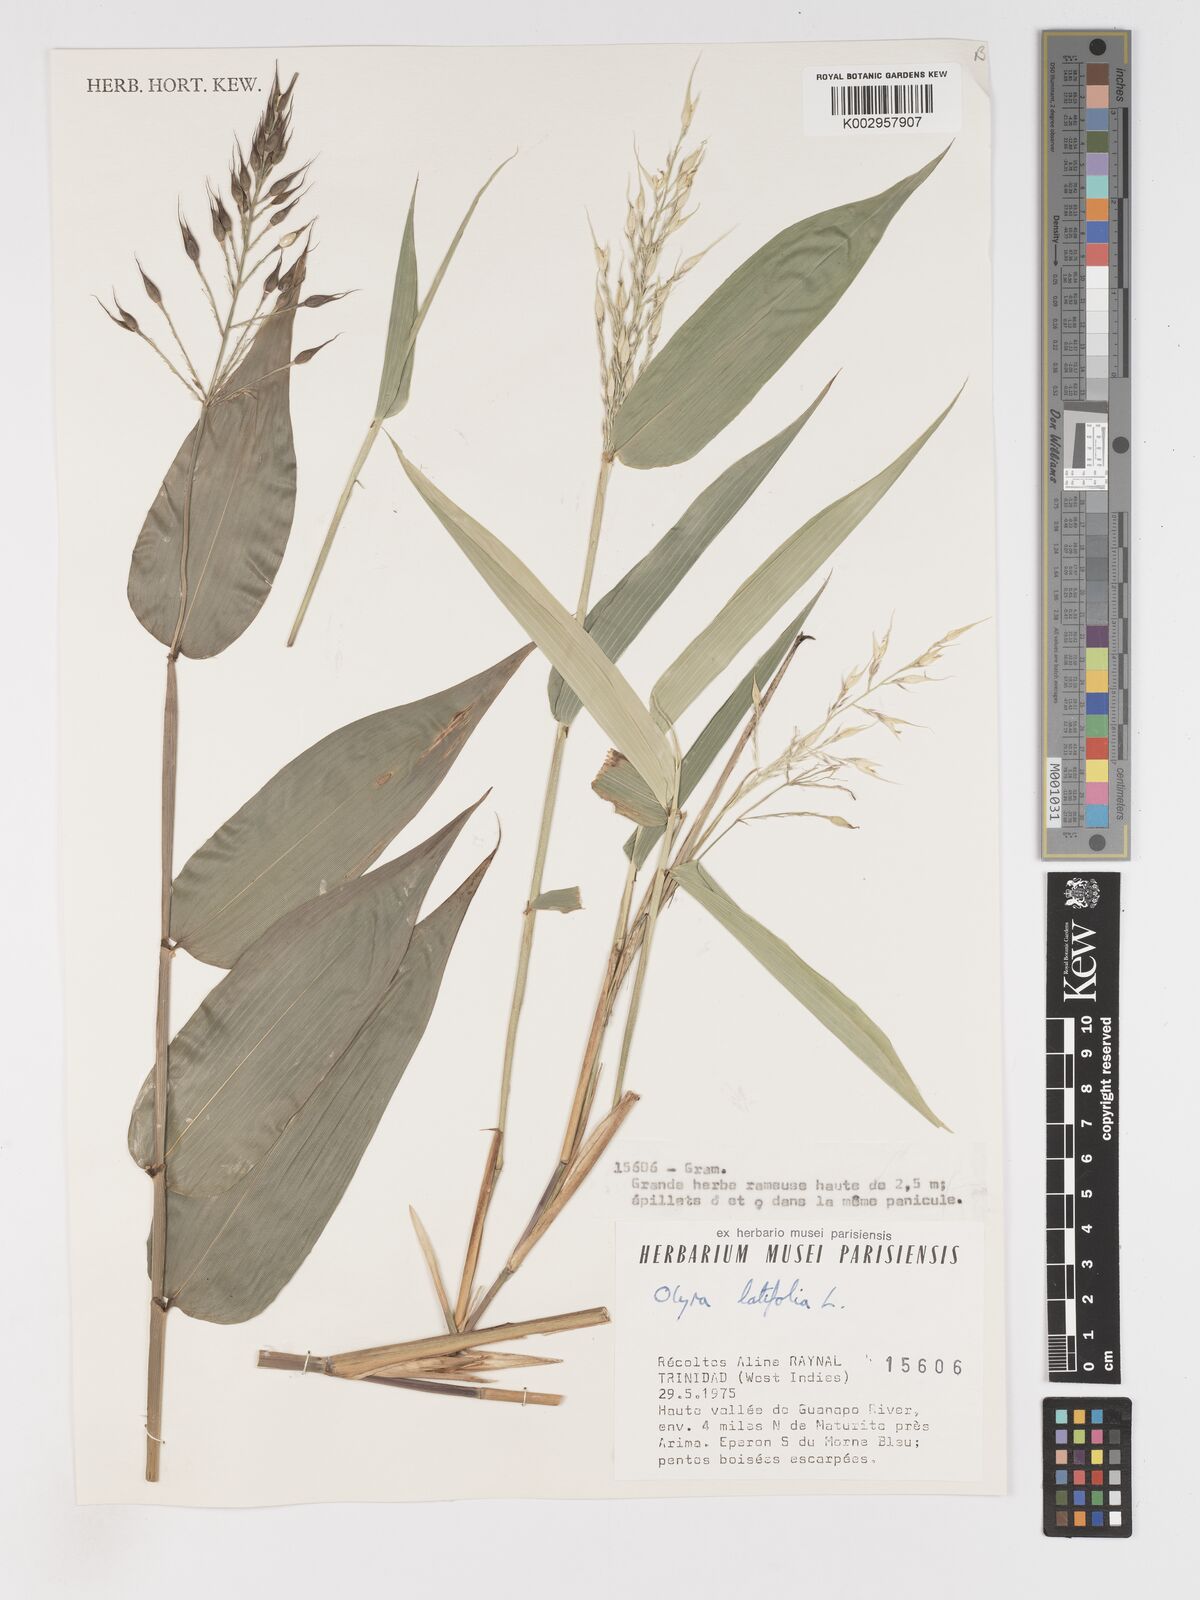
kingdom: Plantae
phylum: Tracheophyta
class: Liliopsida
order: Poales
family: Poaceae
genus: Olyra
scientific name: Olyra latifolia
